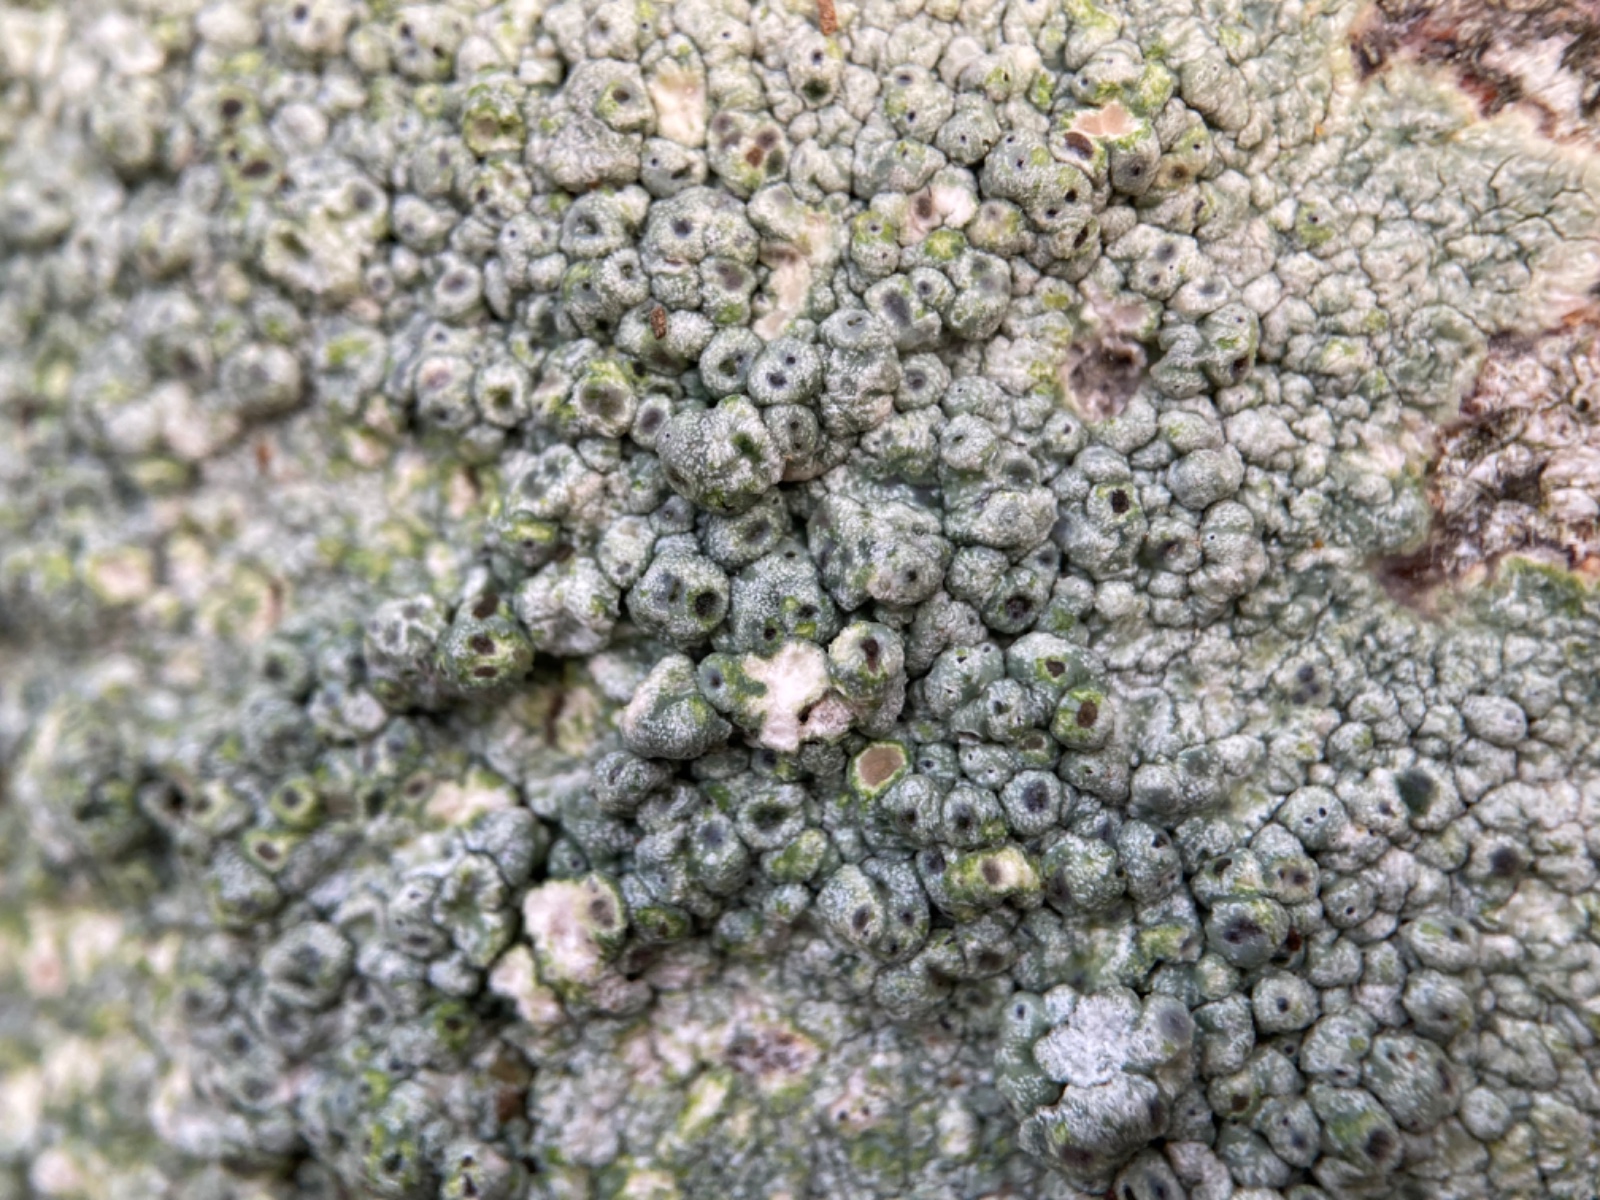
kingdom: Fungi
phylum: Ascomycota
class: Lecanoromycetes
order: Pertusariales
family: Pertusariaceae
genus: Pertusaria
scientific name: Pertusaria pertusa
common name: almindelig prikvortelav
